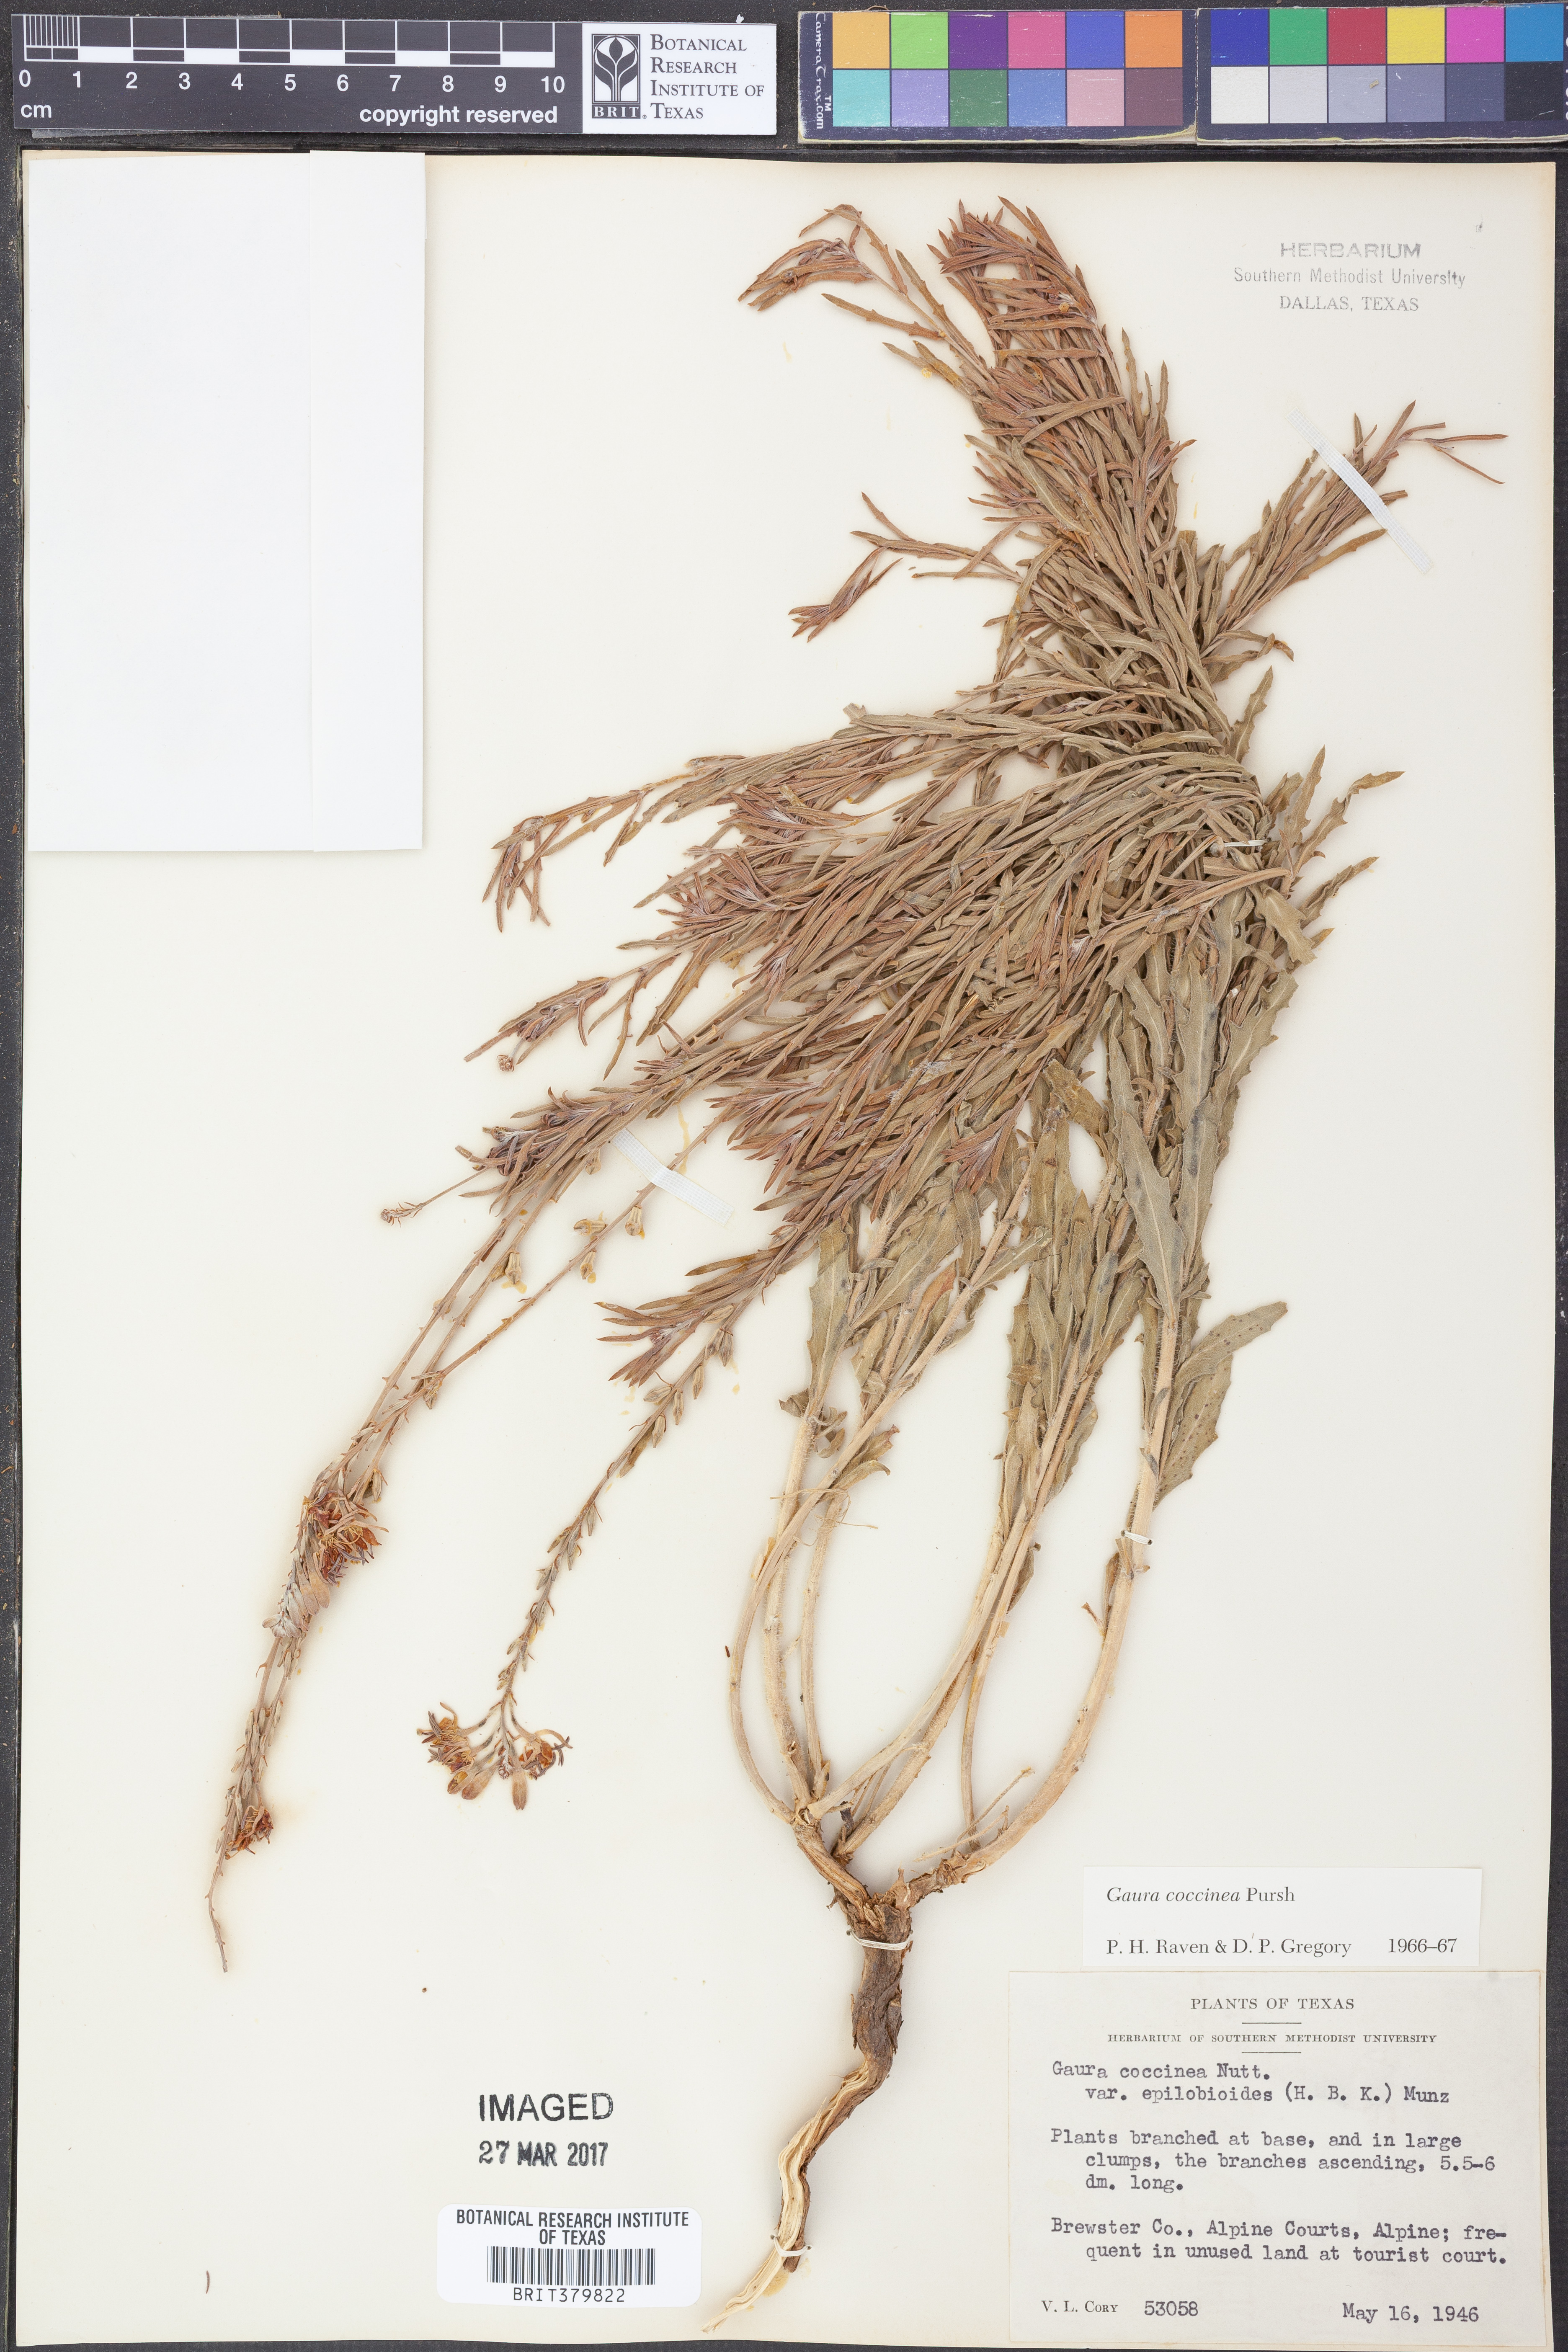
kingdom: Plantae
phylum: Tracheophyta
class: Magnoliopsida
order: Myrtales
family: Onagraceae
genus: Oenothera
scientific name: Oenothera suffrutescens
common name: Scarlet beeblossom
